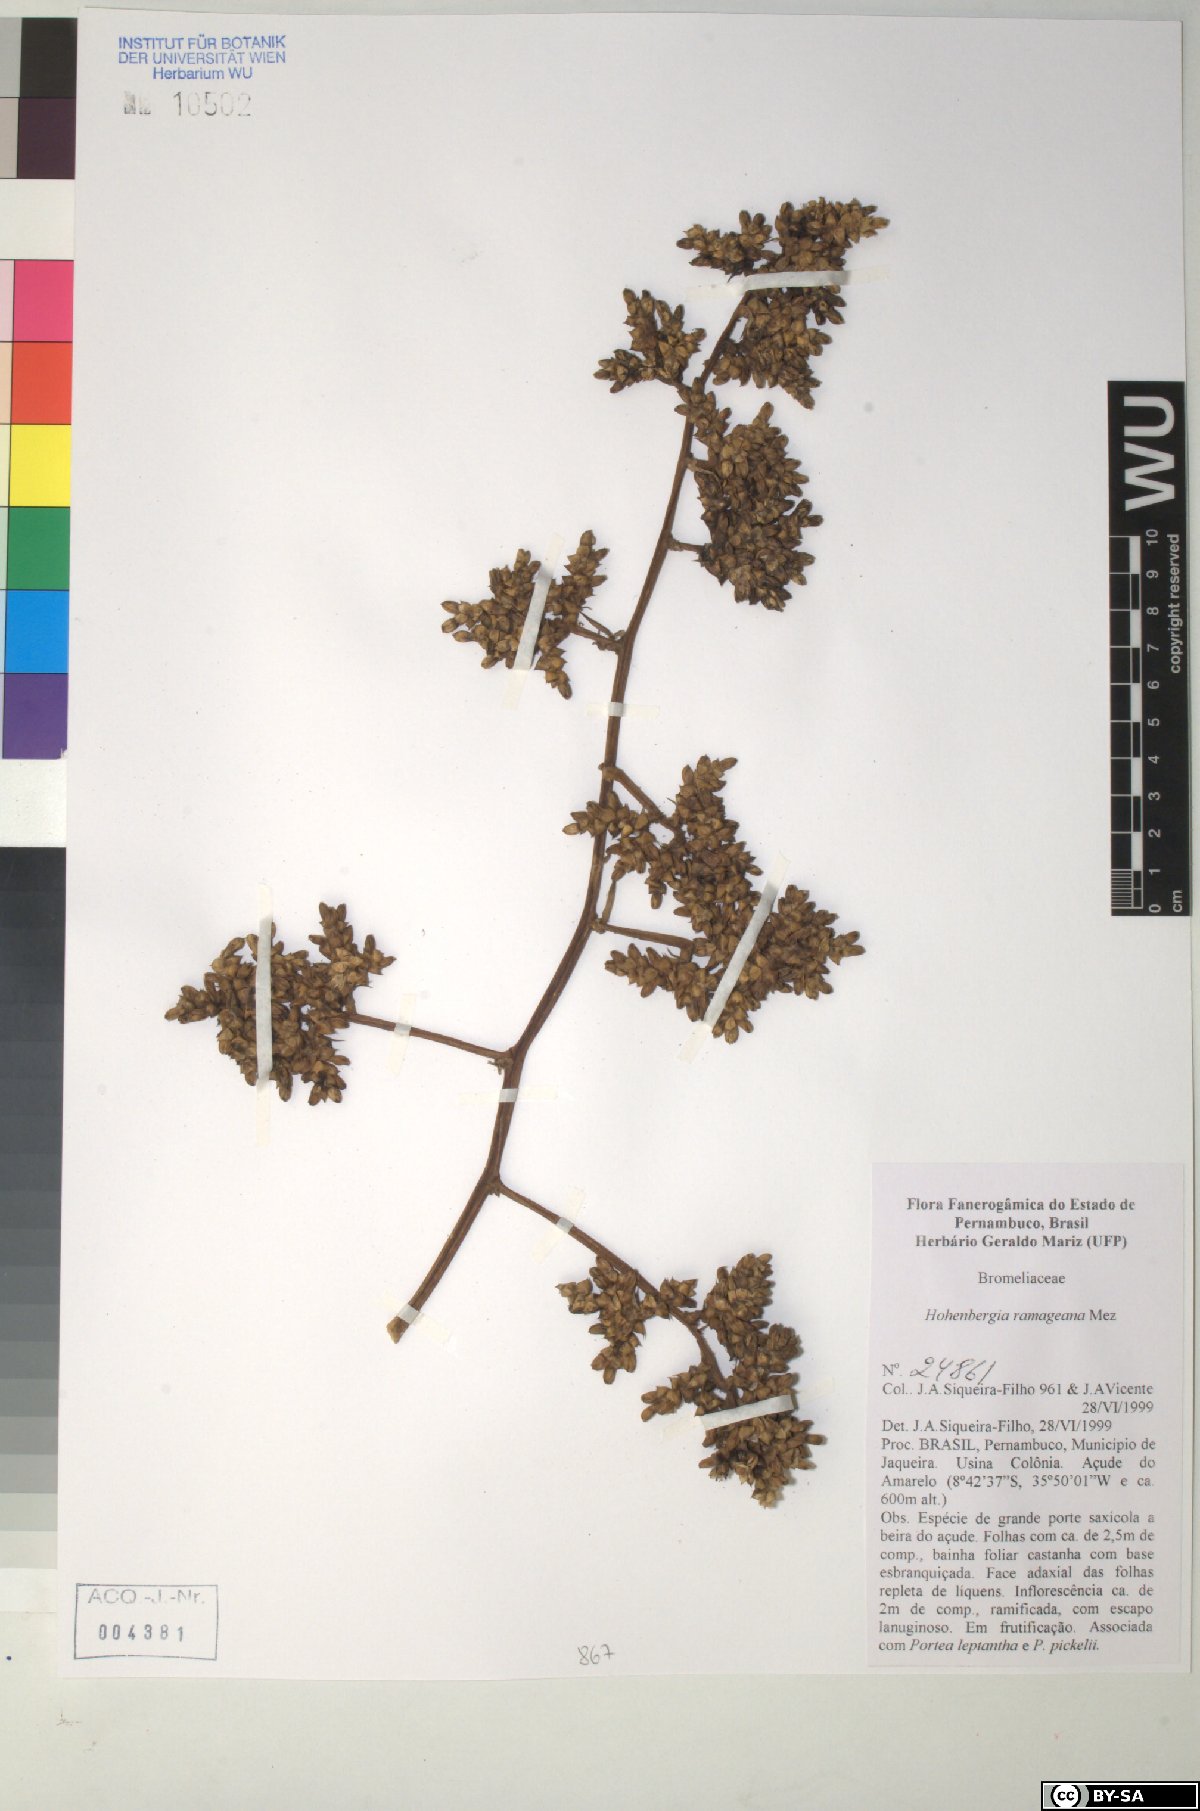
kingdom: Plantae
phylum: Tracheophyta
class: Liliopsida
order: Poales
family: Bromeliaceae
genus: Hohenbergia
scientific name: Hohenbergia ridleyi
